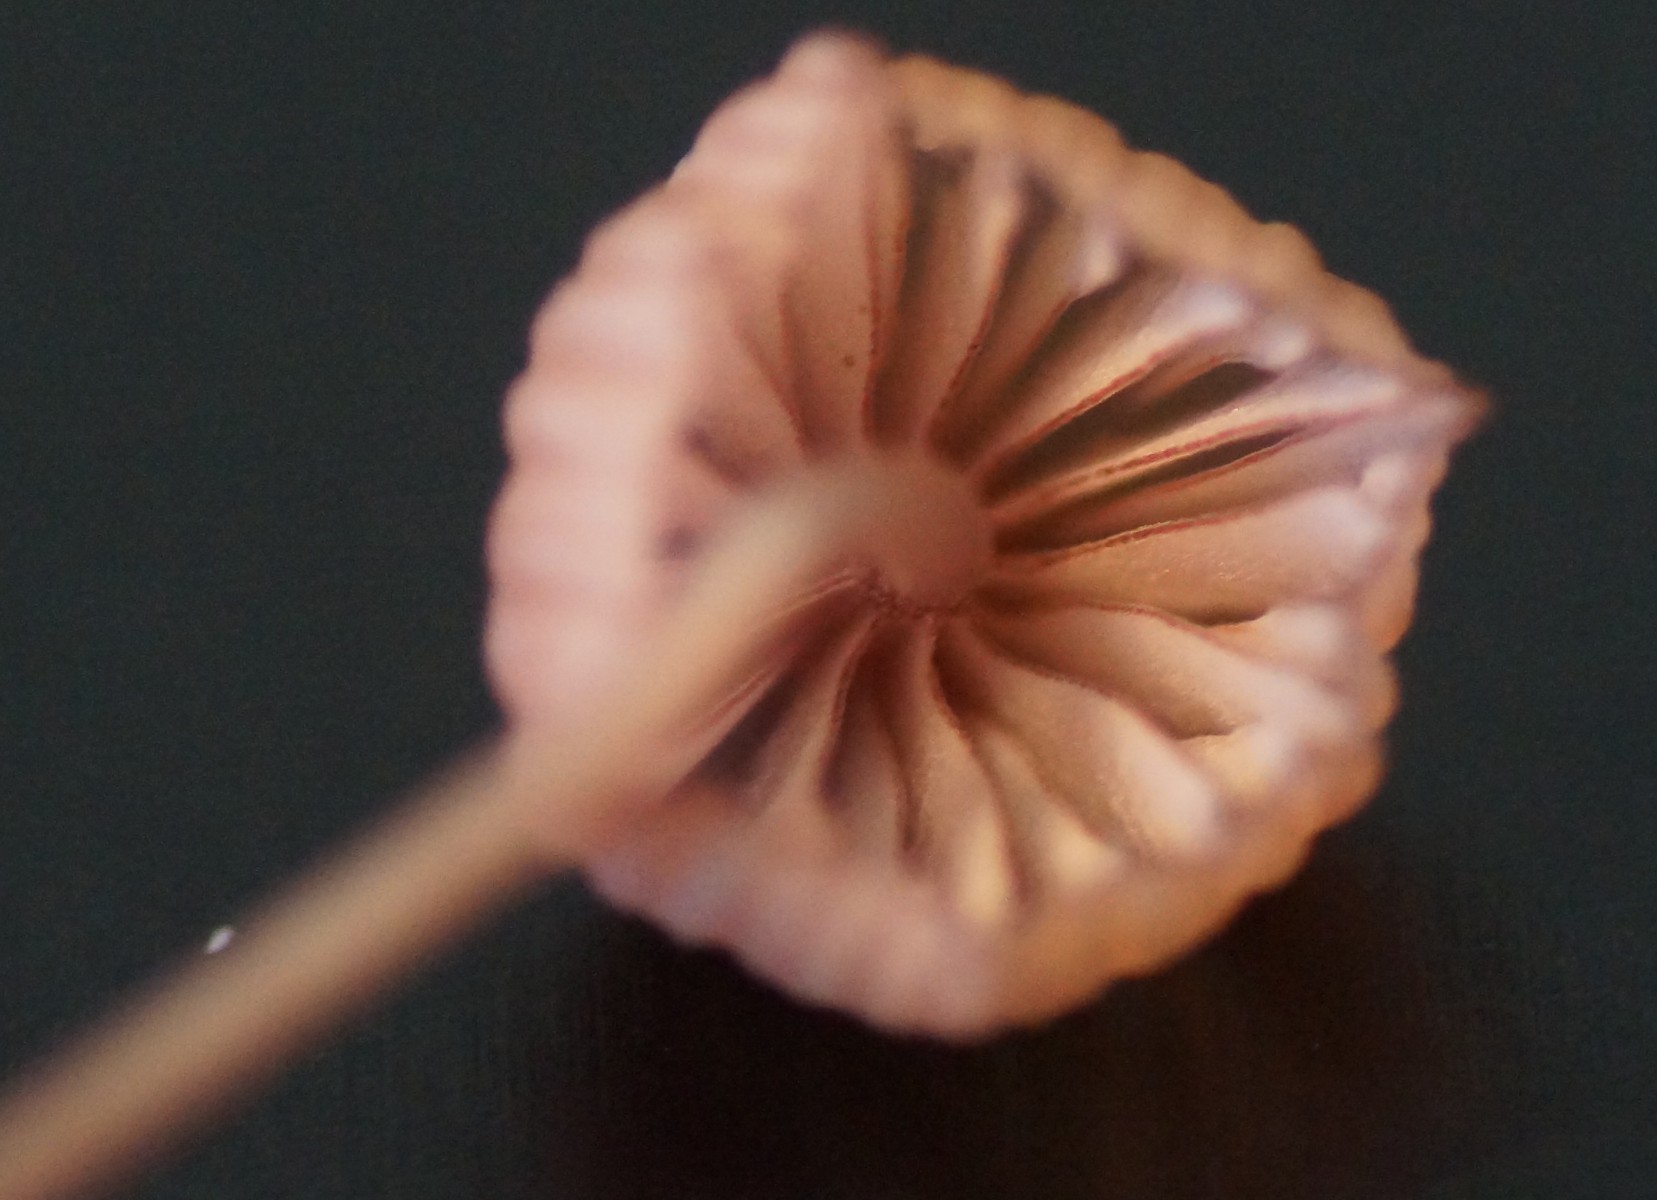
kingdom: Fungi
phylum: Basidiomycota
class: Agaricomycetes
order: Agaricales
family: Mycenaceae
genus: Mycena
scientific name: Mycena sanguinolenta
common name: rødmælket huesvamp
